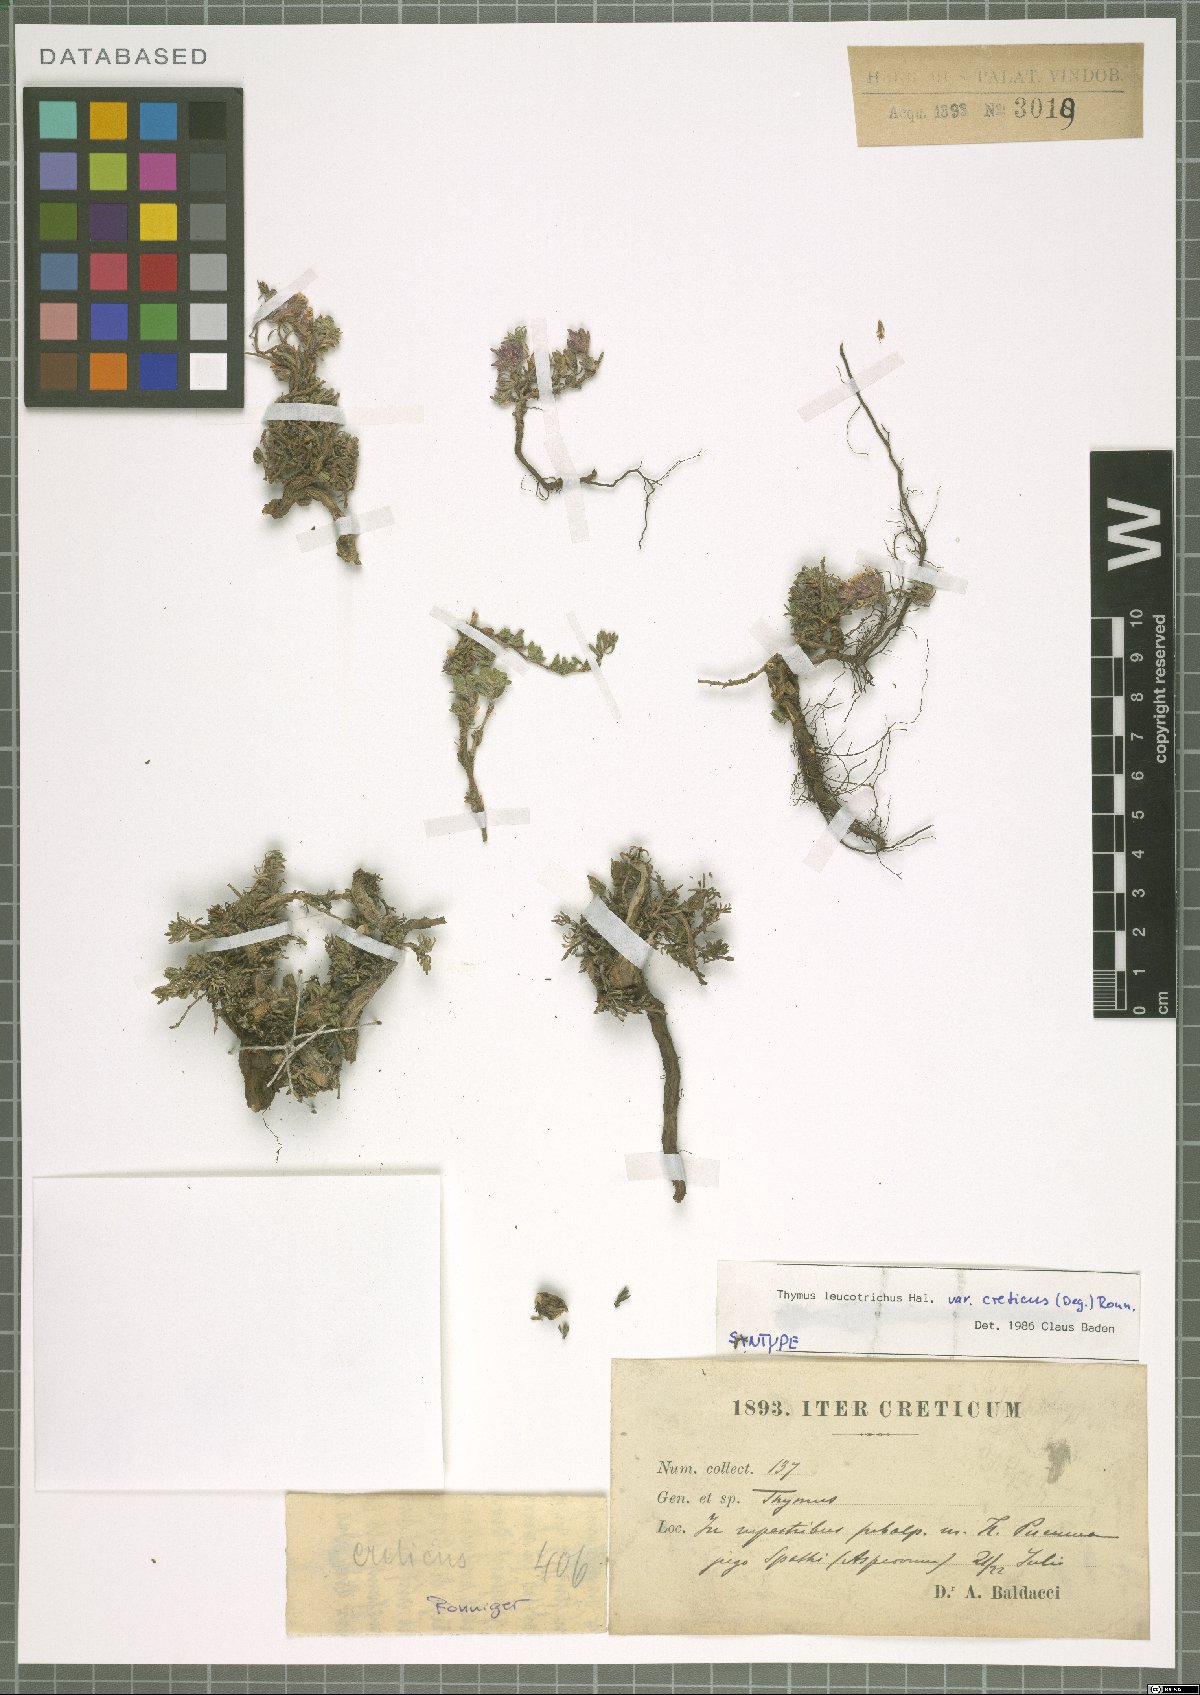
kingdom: Plantae
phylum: Tracheophyta
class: Magnoliopsida
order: Lamiales
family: Lamiaceae
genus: Thymus
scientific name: Thymus leucotrichus
